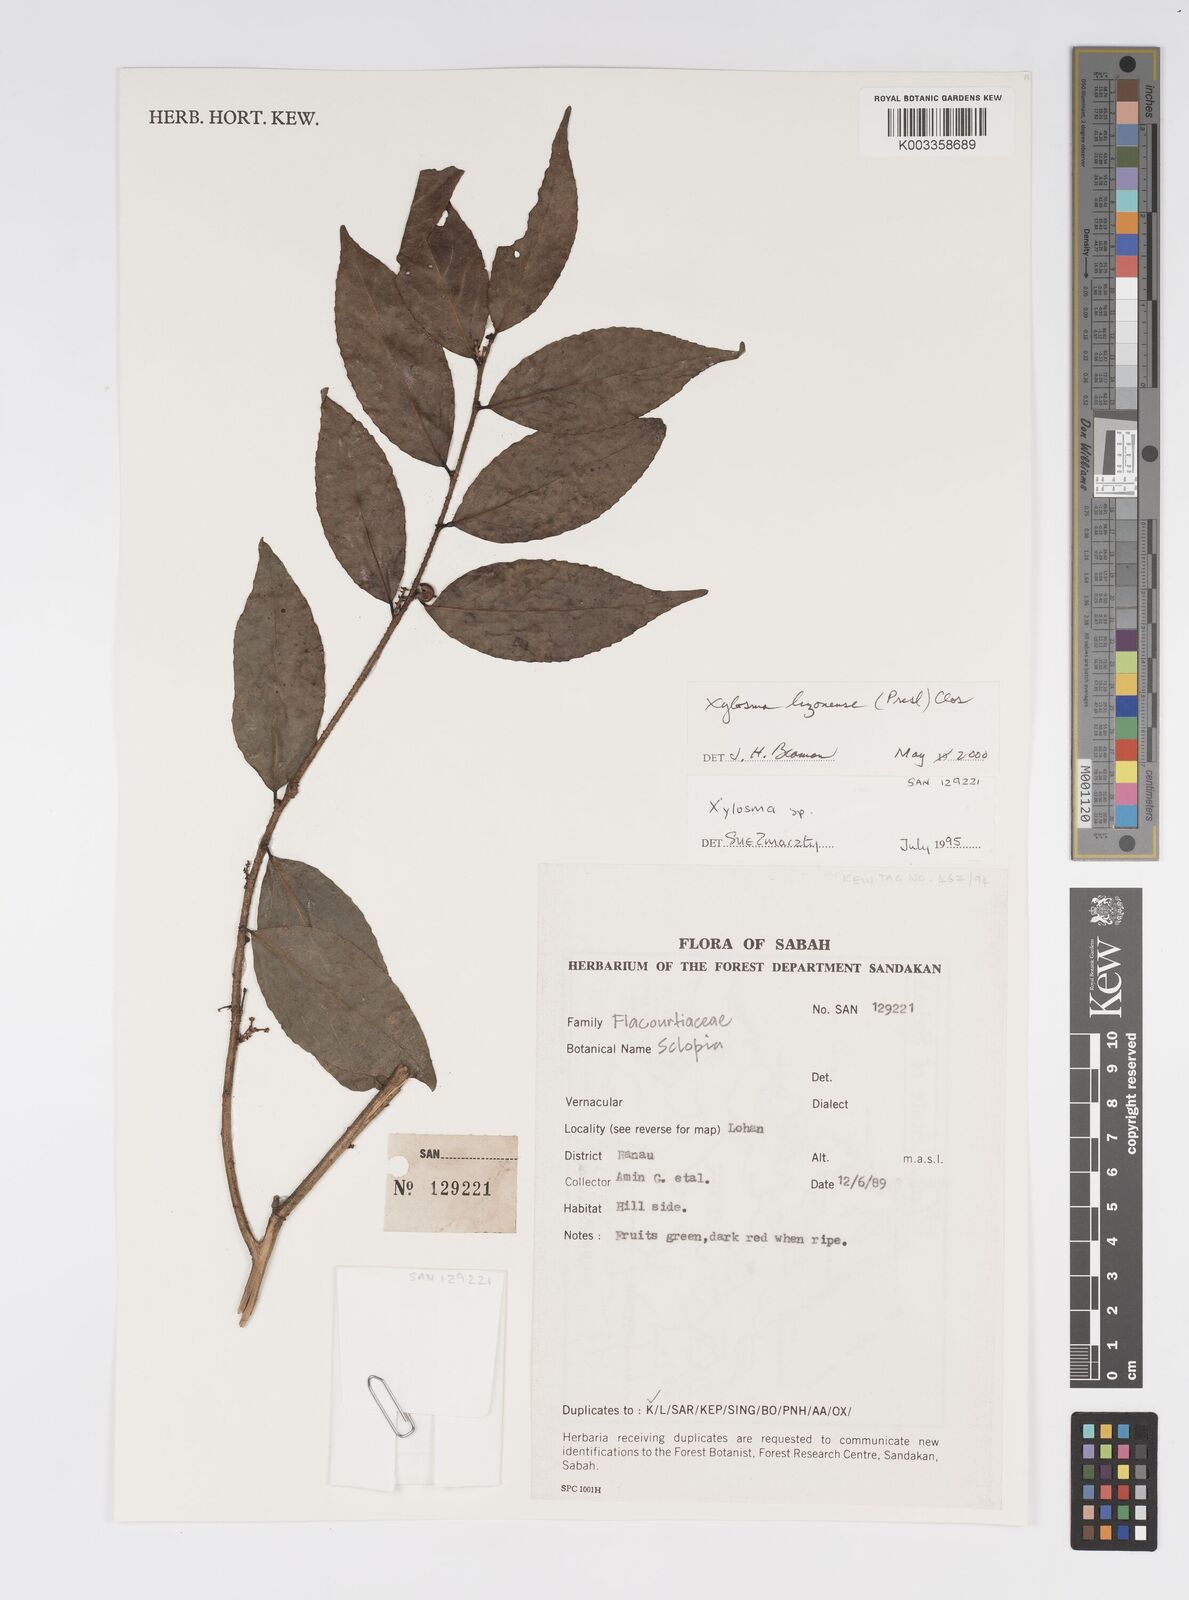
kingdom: Plantae
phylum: Tracheophyta
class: Magnoliopsida
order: Malpighiales
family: Salicaceae
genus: Xylosma
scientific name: Xylosma luzonensis
